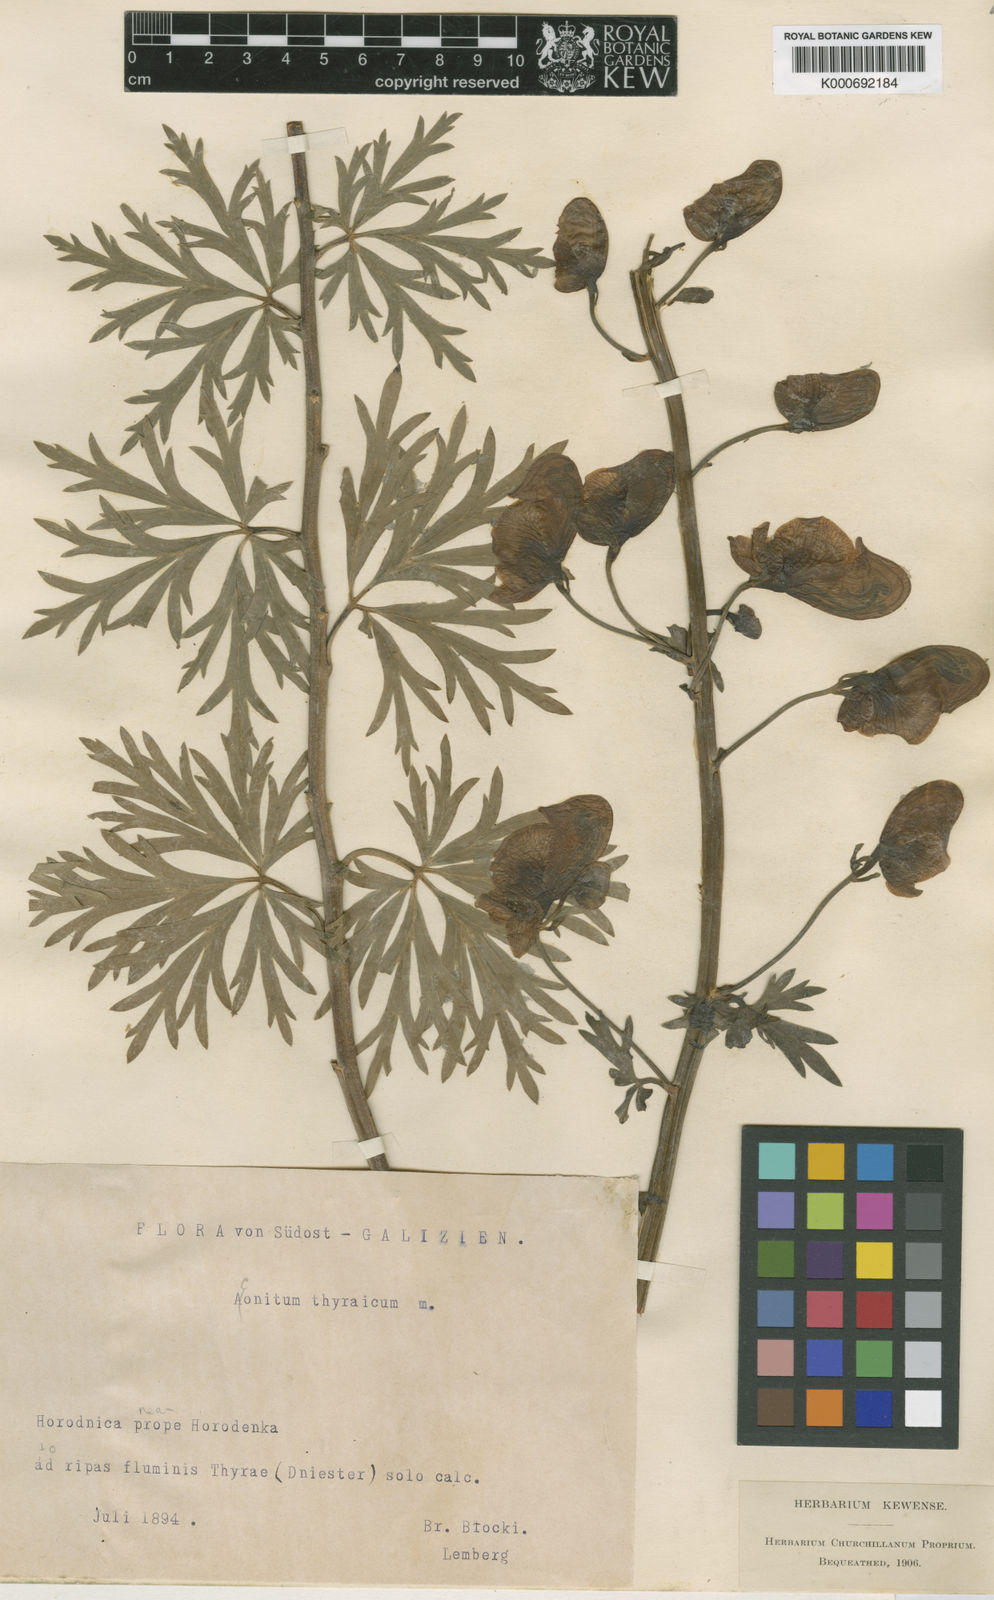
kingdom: Plantae
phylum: Tracheophyta
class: Magnoliopsida
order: Ranunculales
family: Ranunculaceae
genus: Aconitum
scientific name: Aconitum firmum
